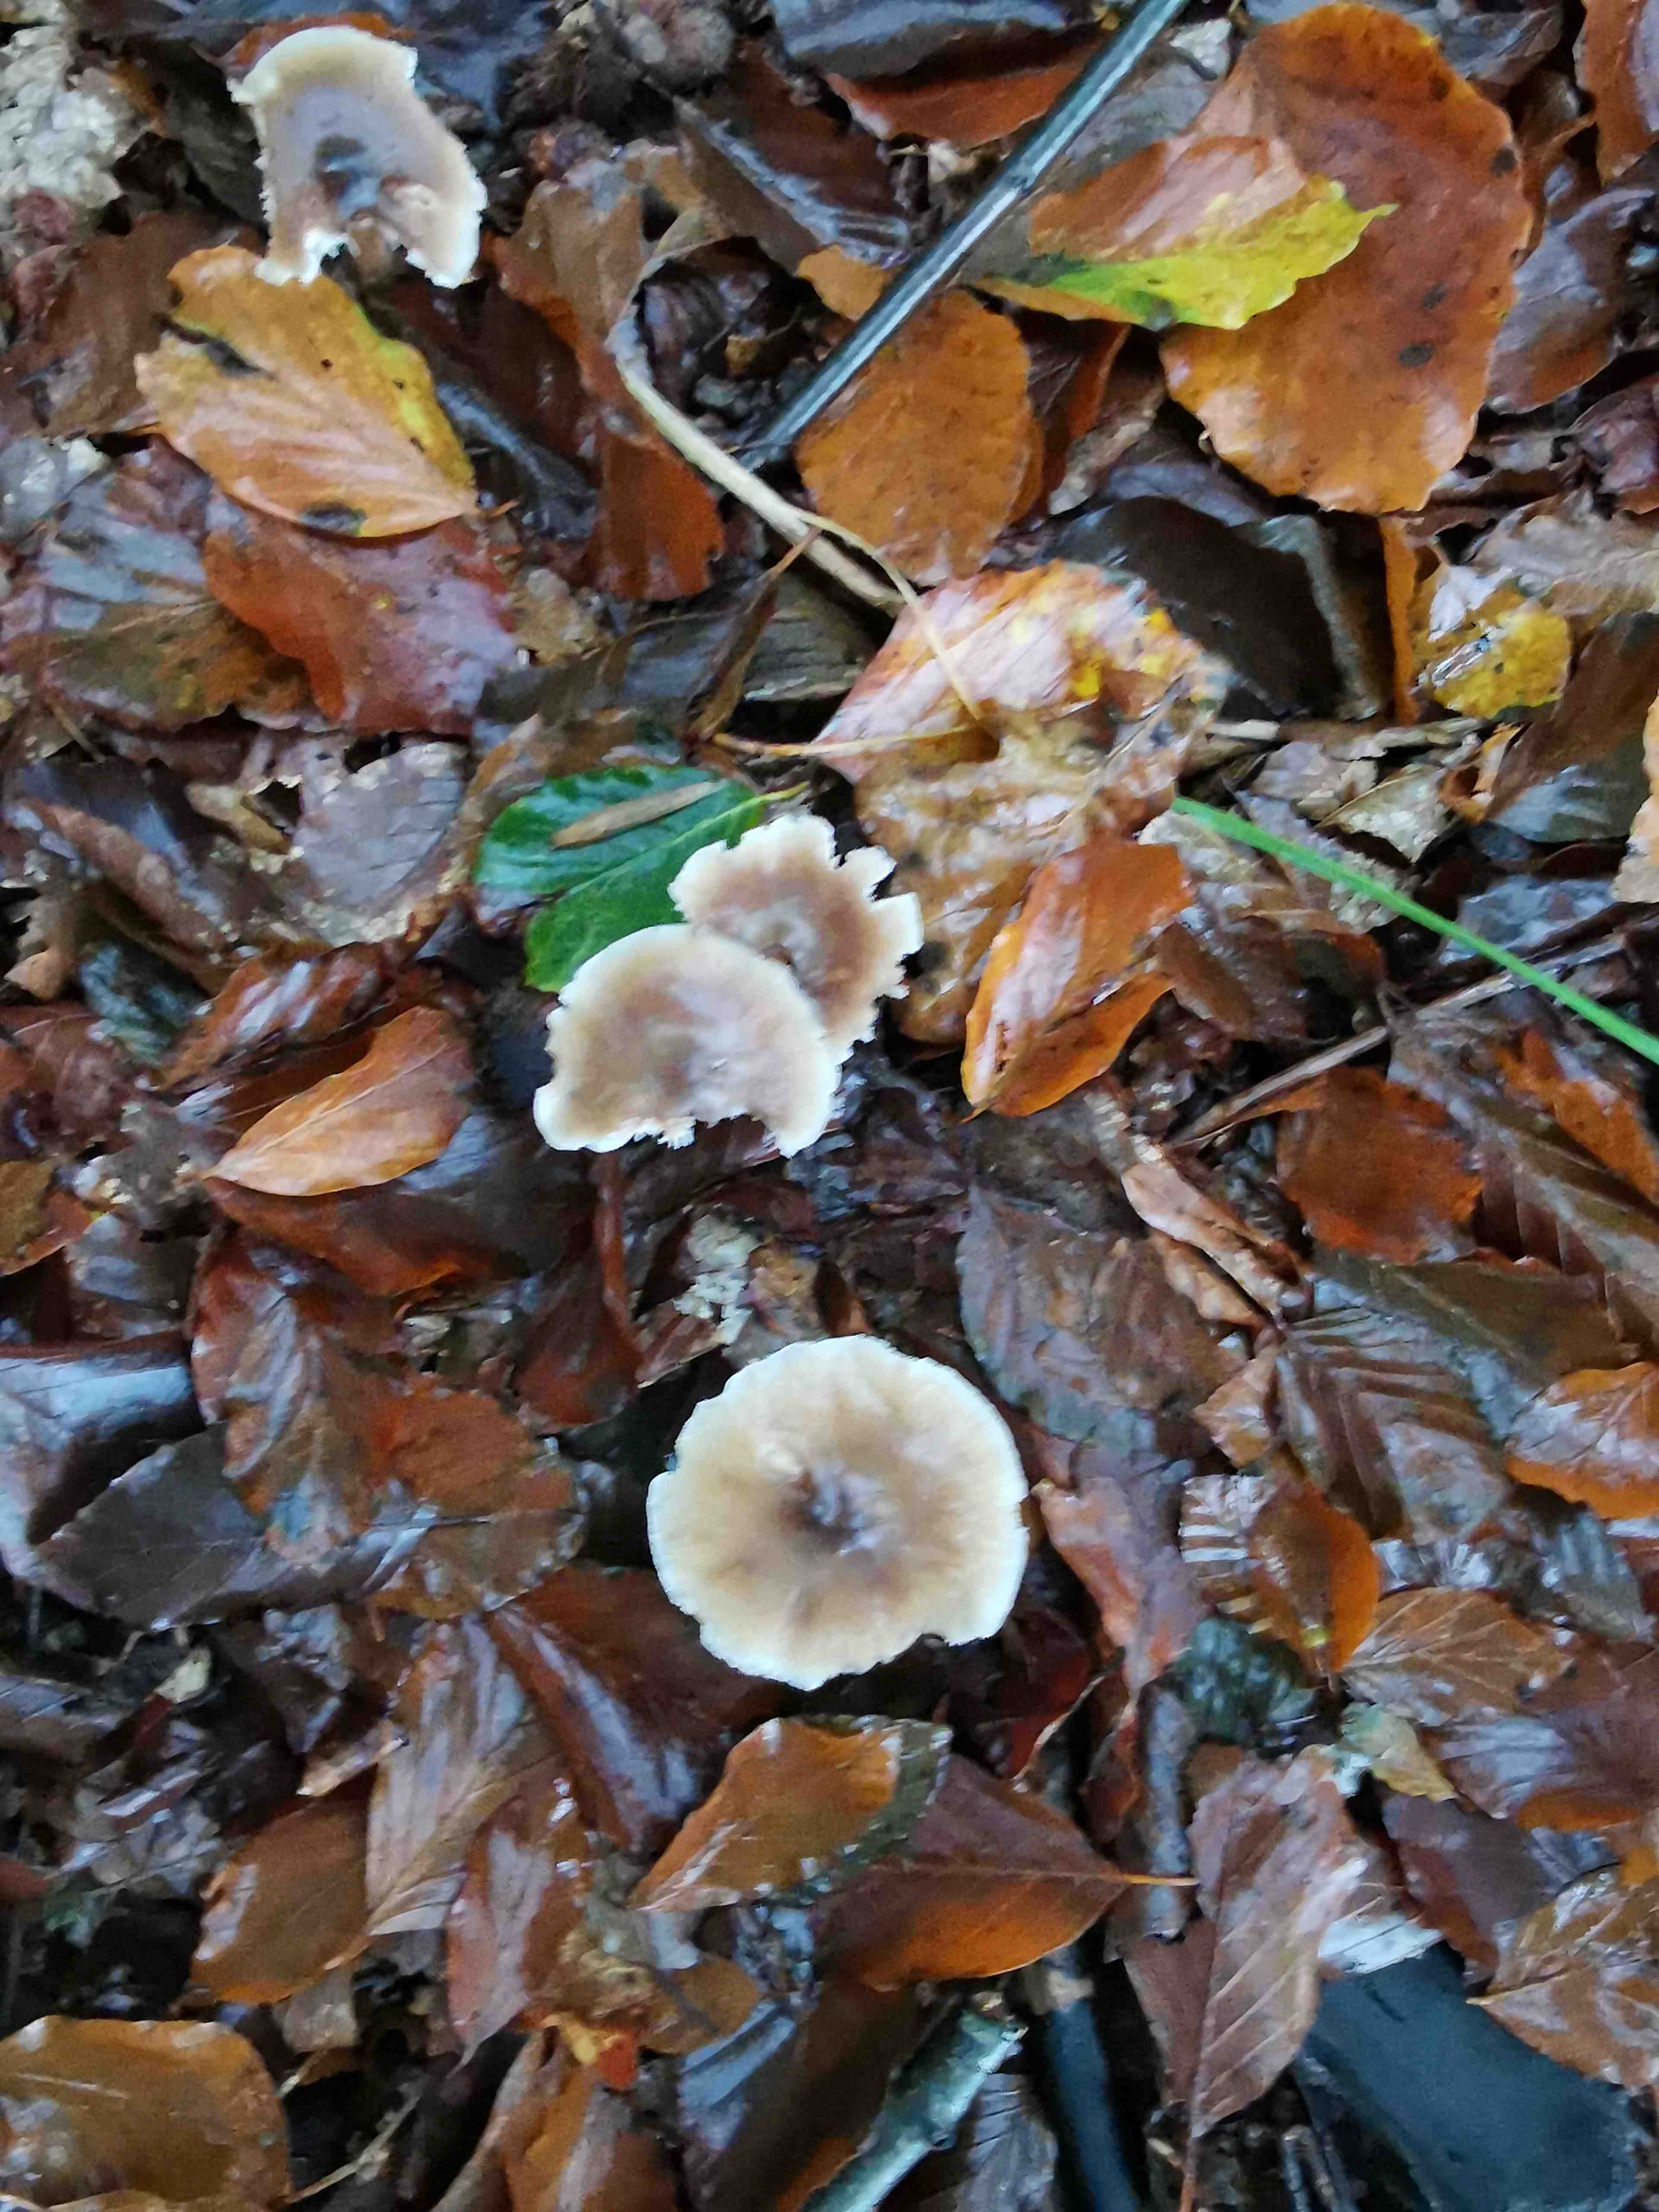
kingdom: Fungi
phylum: Basidiomycota
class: Agaricomycetes
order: Agaricales
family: Tricholomataceae
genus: Megacollybia
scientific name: Megacollybia platyphylla
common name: bredbladet væbnerhat
